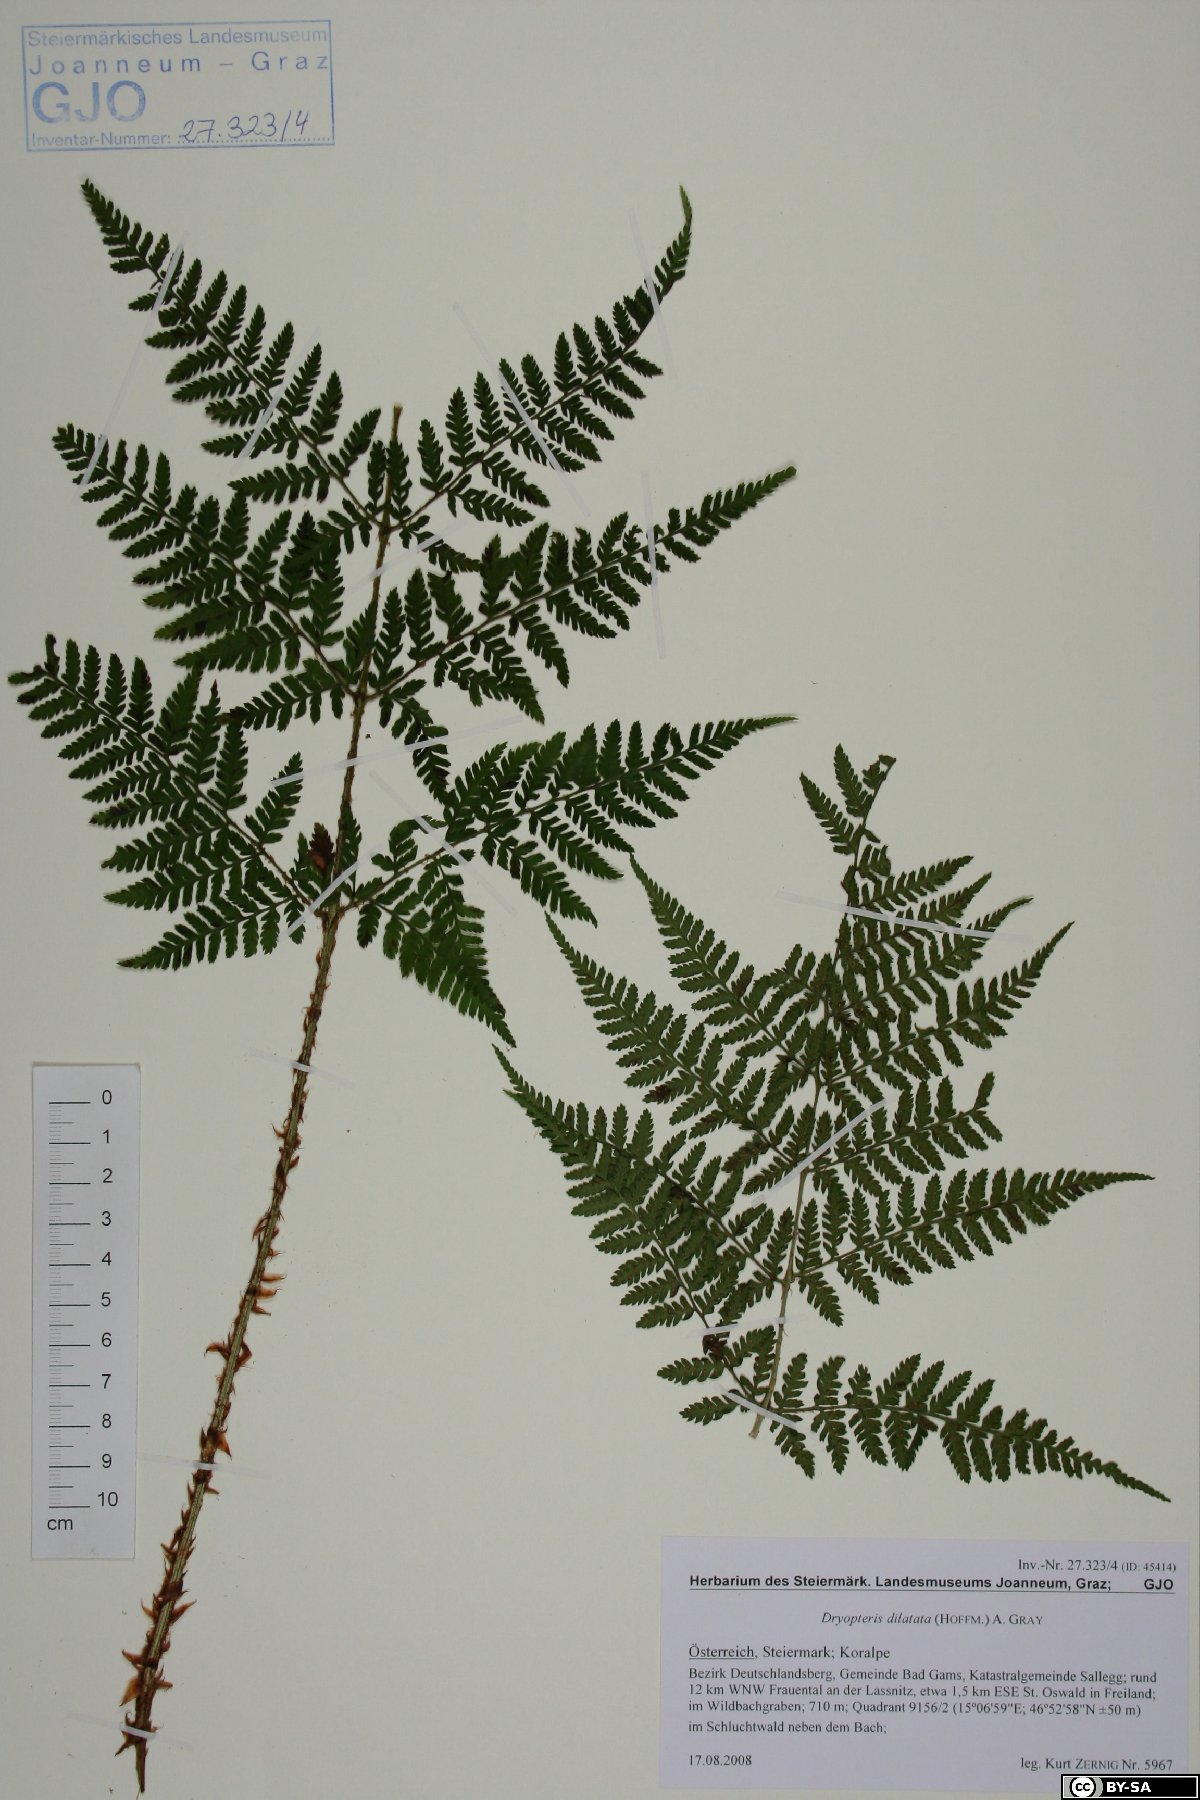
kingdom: Plantae
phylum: Tracheophyta
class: Polypodiopsida
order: Polypodiales
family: Dryopteridaceae
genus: Dryopteris
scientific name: Dryopteris dilatata
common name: Broad buckler-fern
